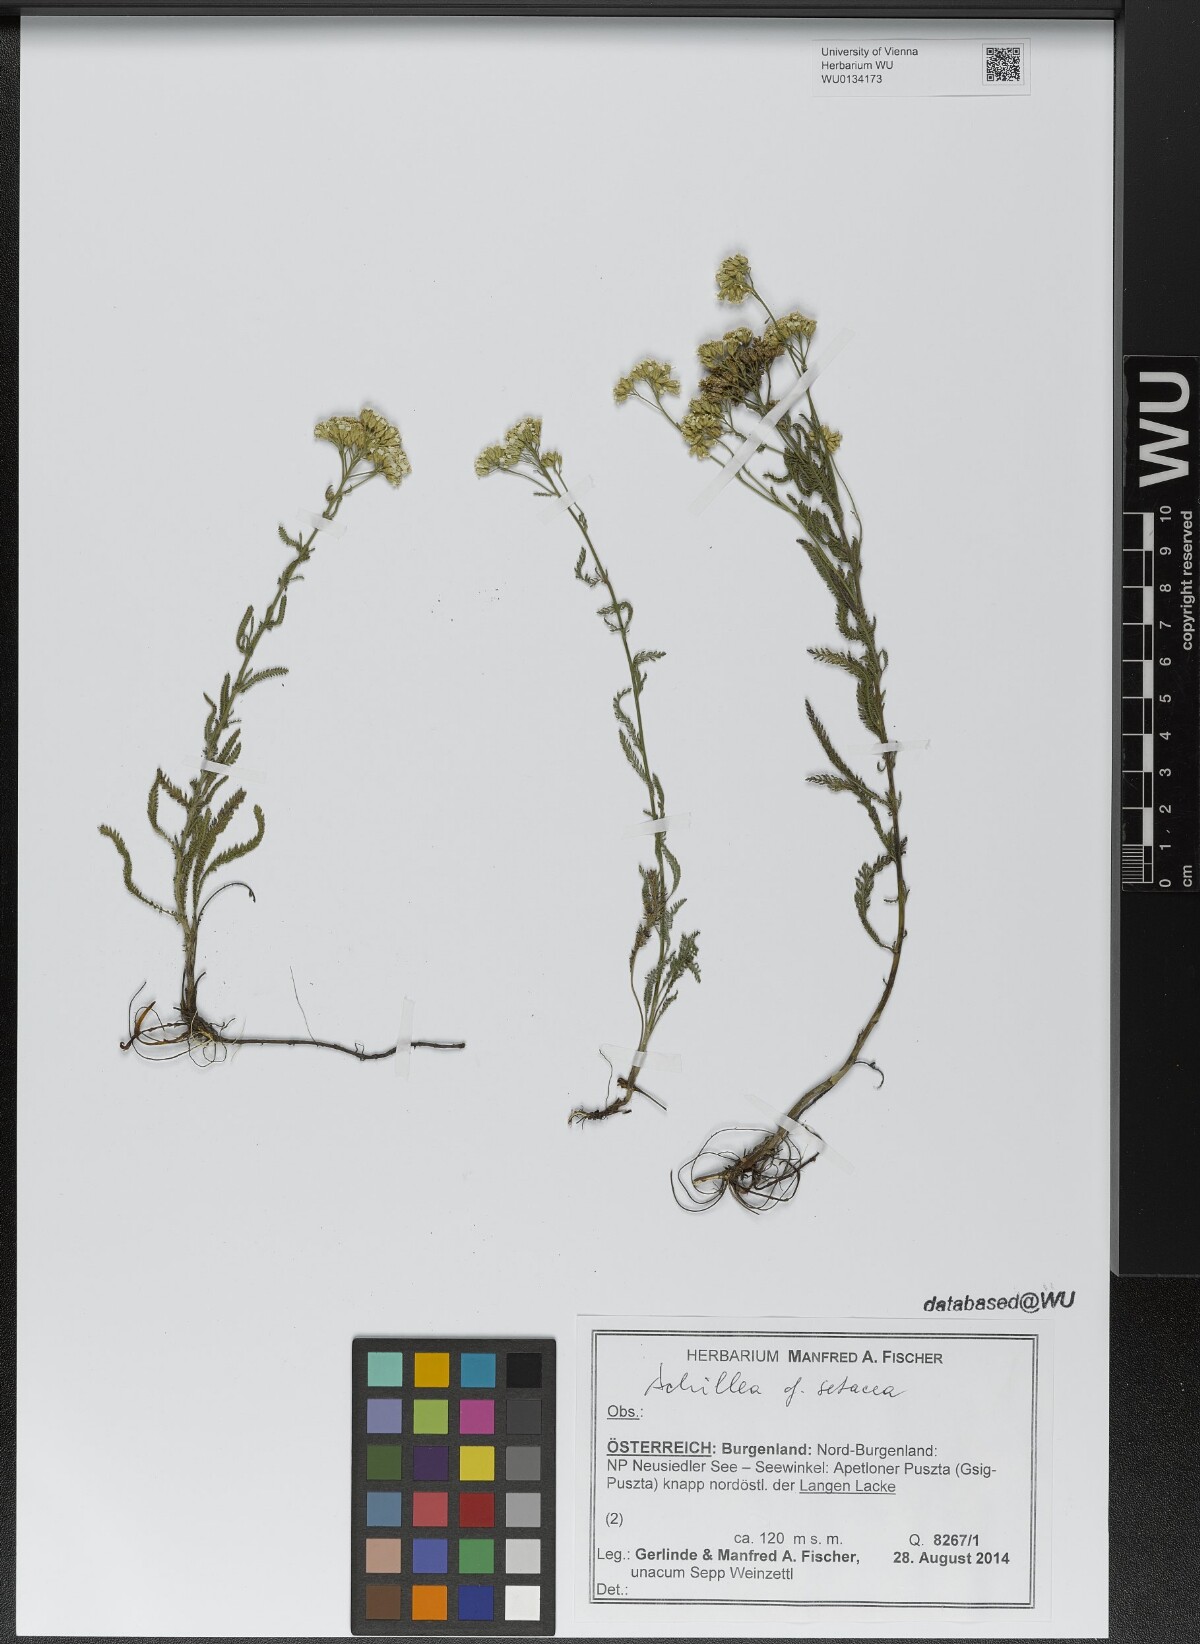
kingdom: Plantae
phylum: Tracheophyta
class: Magnoliopsida
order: Asterales
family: Asteraceae
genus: Achillea
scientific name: Achillea setacea
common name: Bristly yarrow
